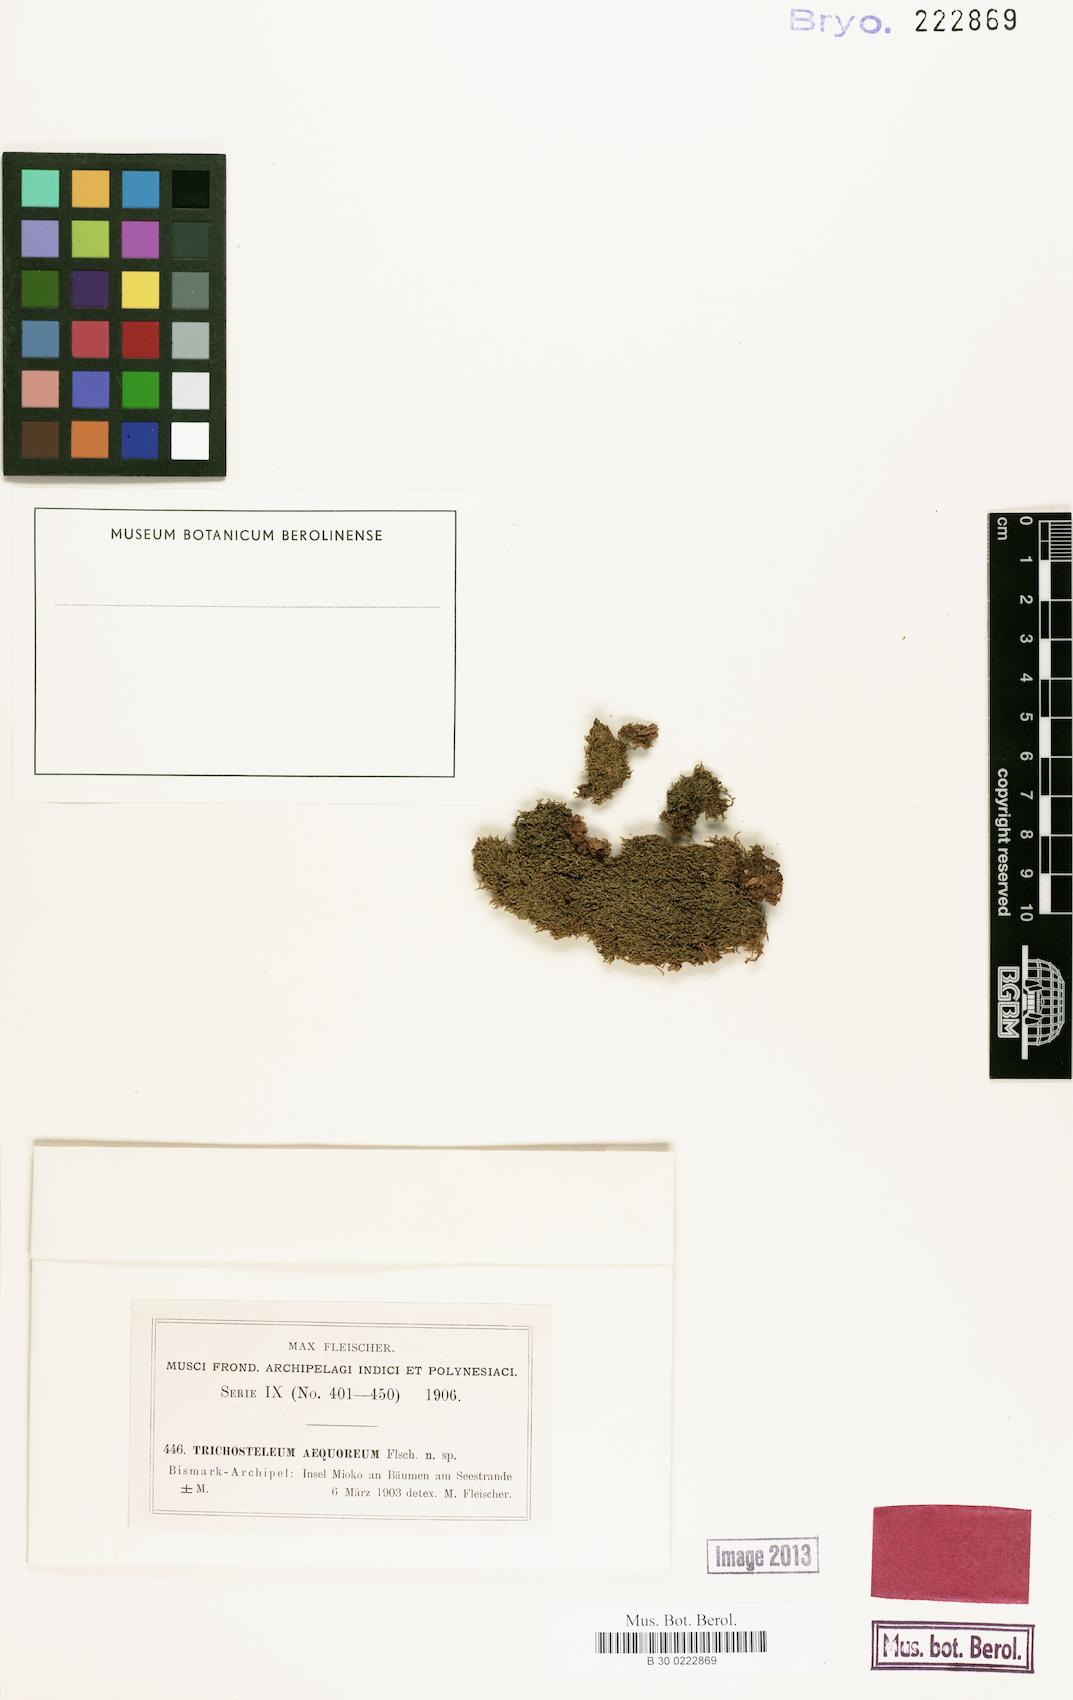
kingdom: Plantae
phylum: Bryophyta
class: Bryopsida
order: Hypnales
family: Sematophyllaceae
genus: Radulina
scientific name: Radulina borbonica
